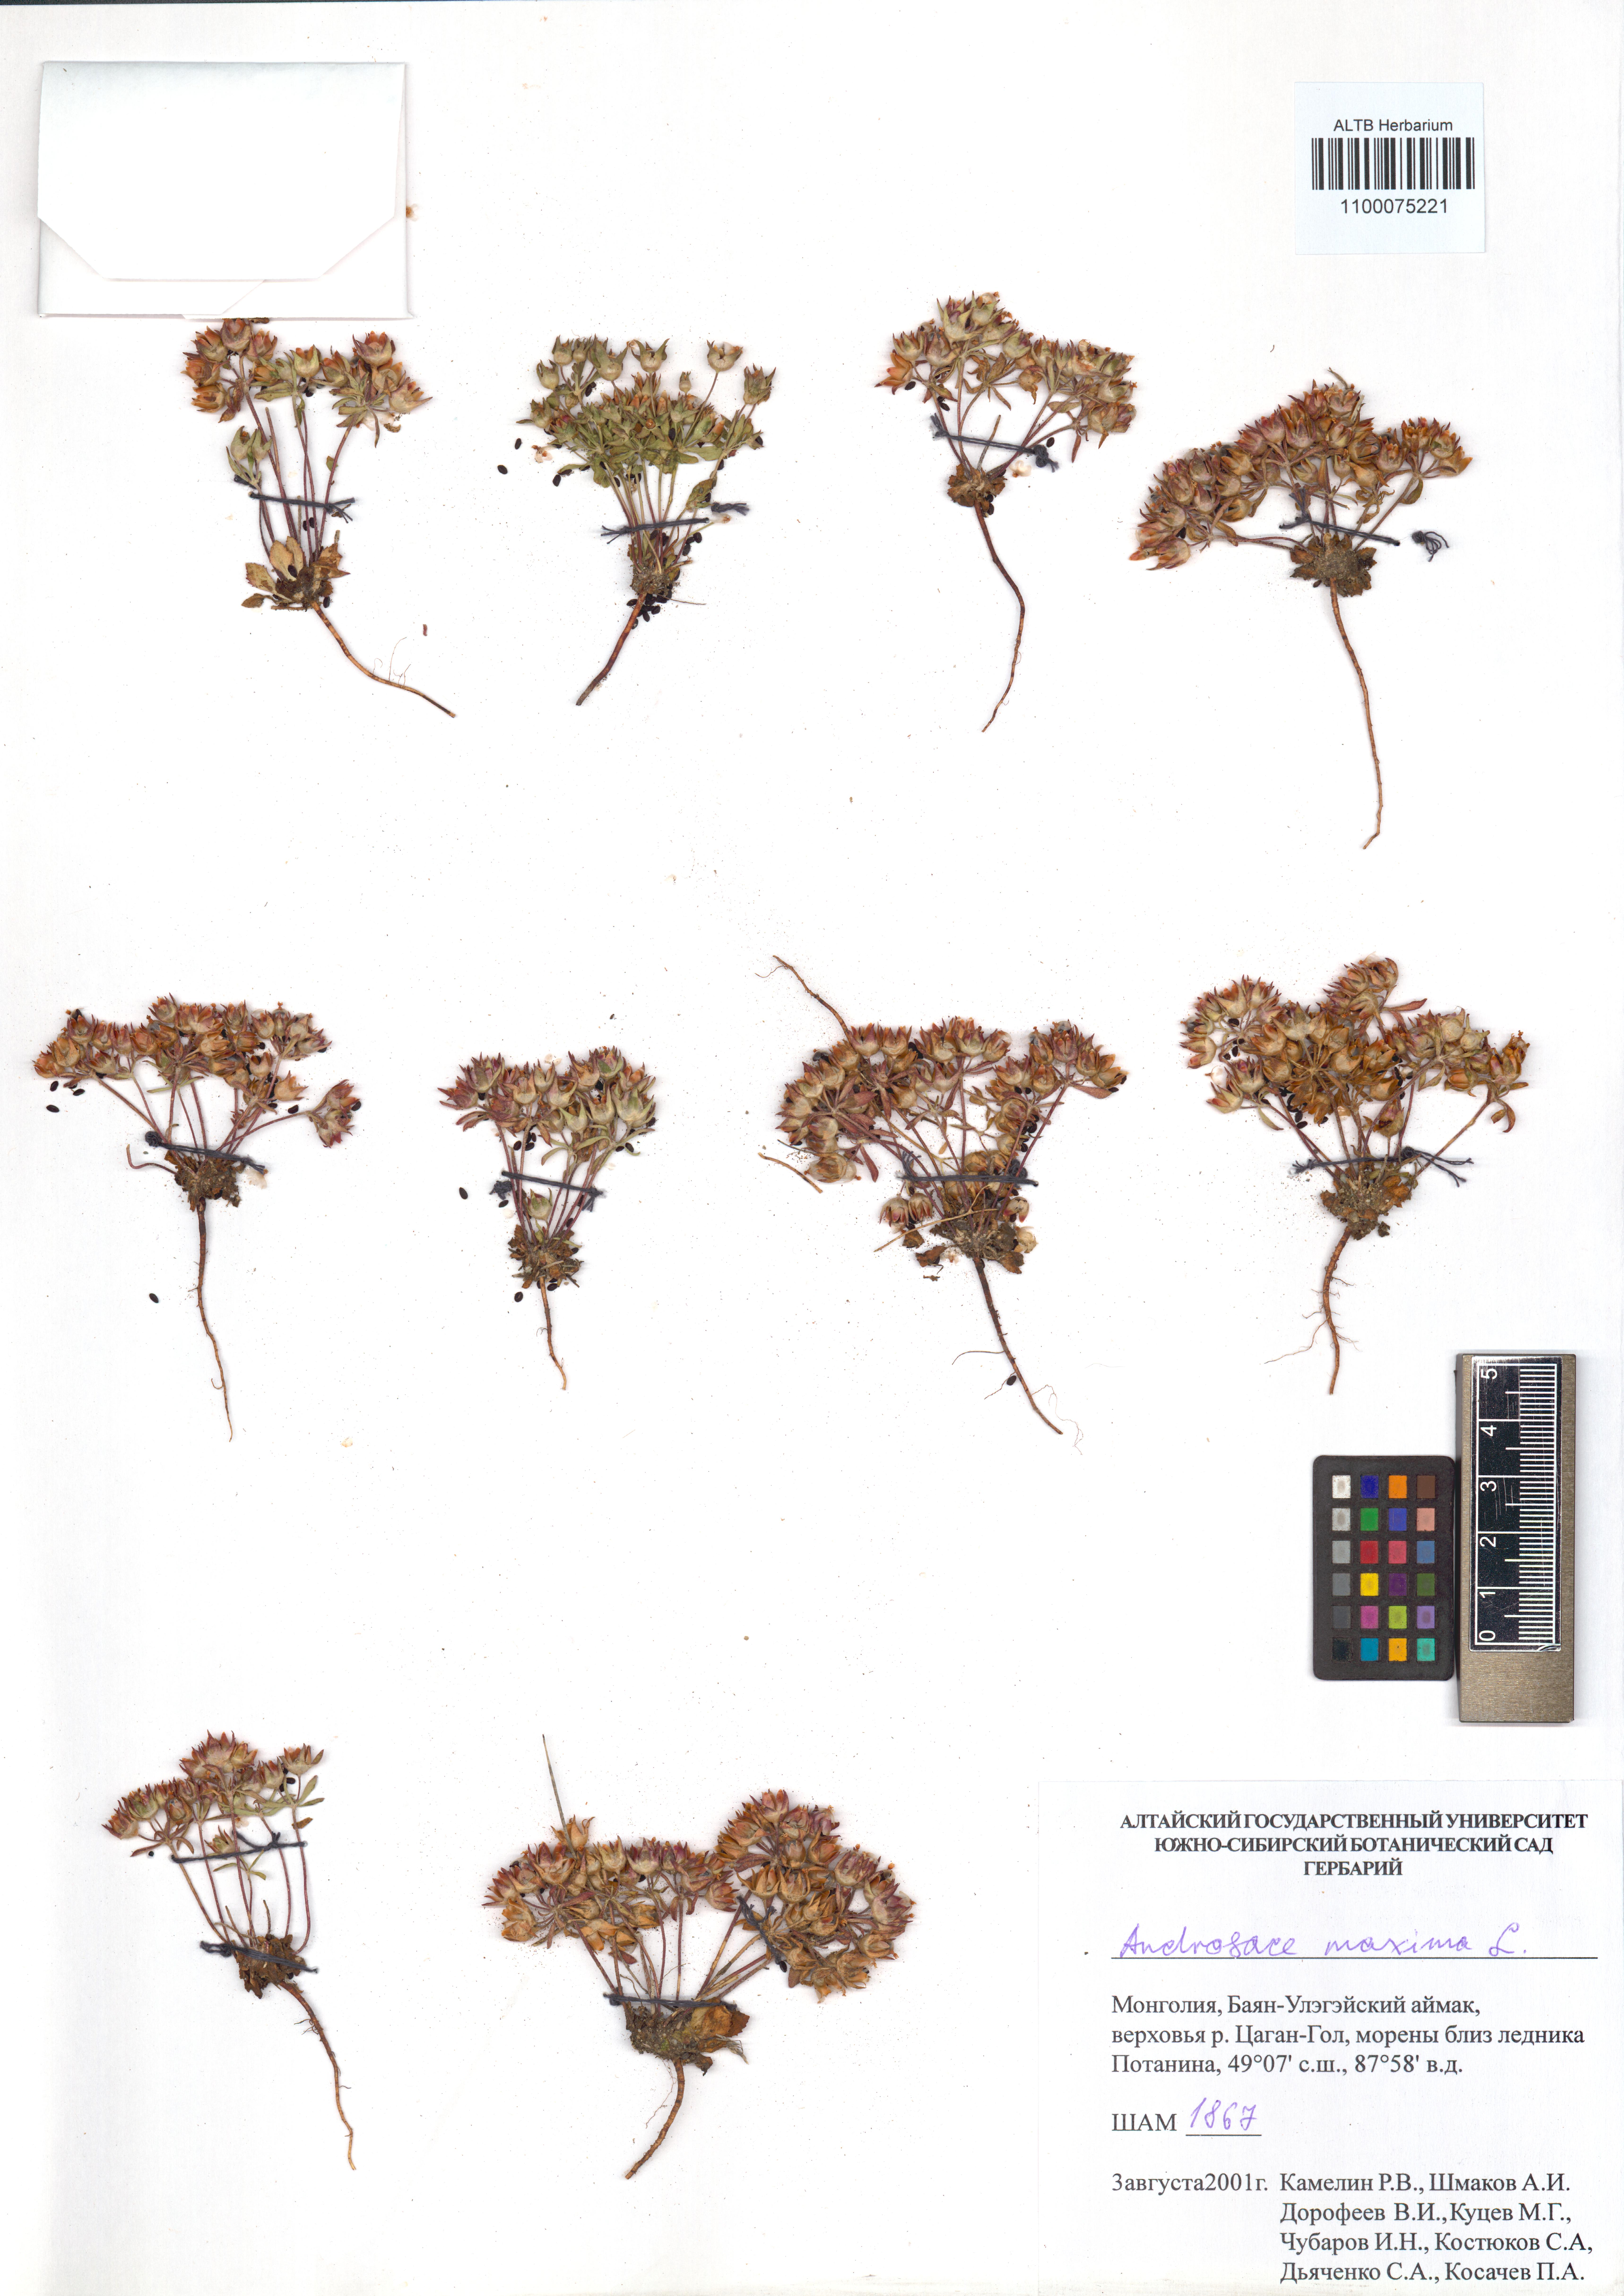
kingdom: Plantae
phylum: Tracheophyta
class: Magnoliopsida
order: Ericales
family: Primulaceae
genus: Androsace
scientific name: Androsace maxima
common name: Annual androsace
